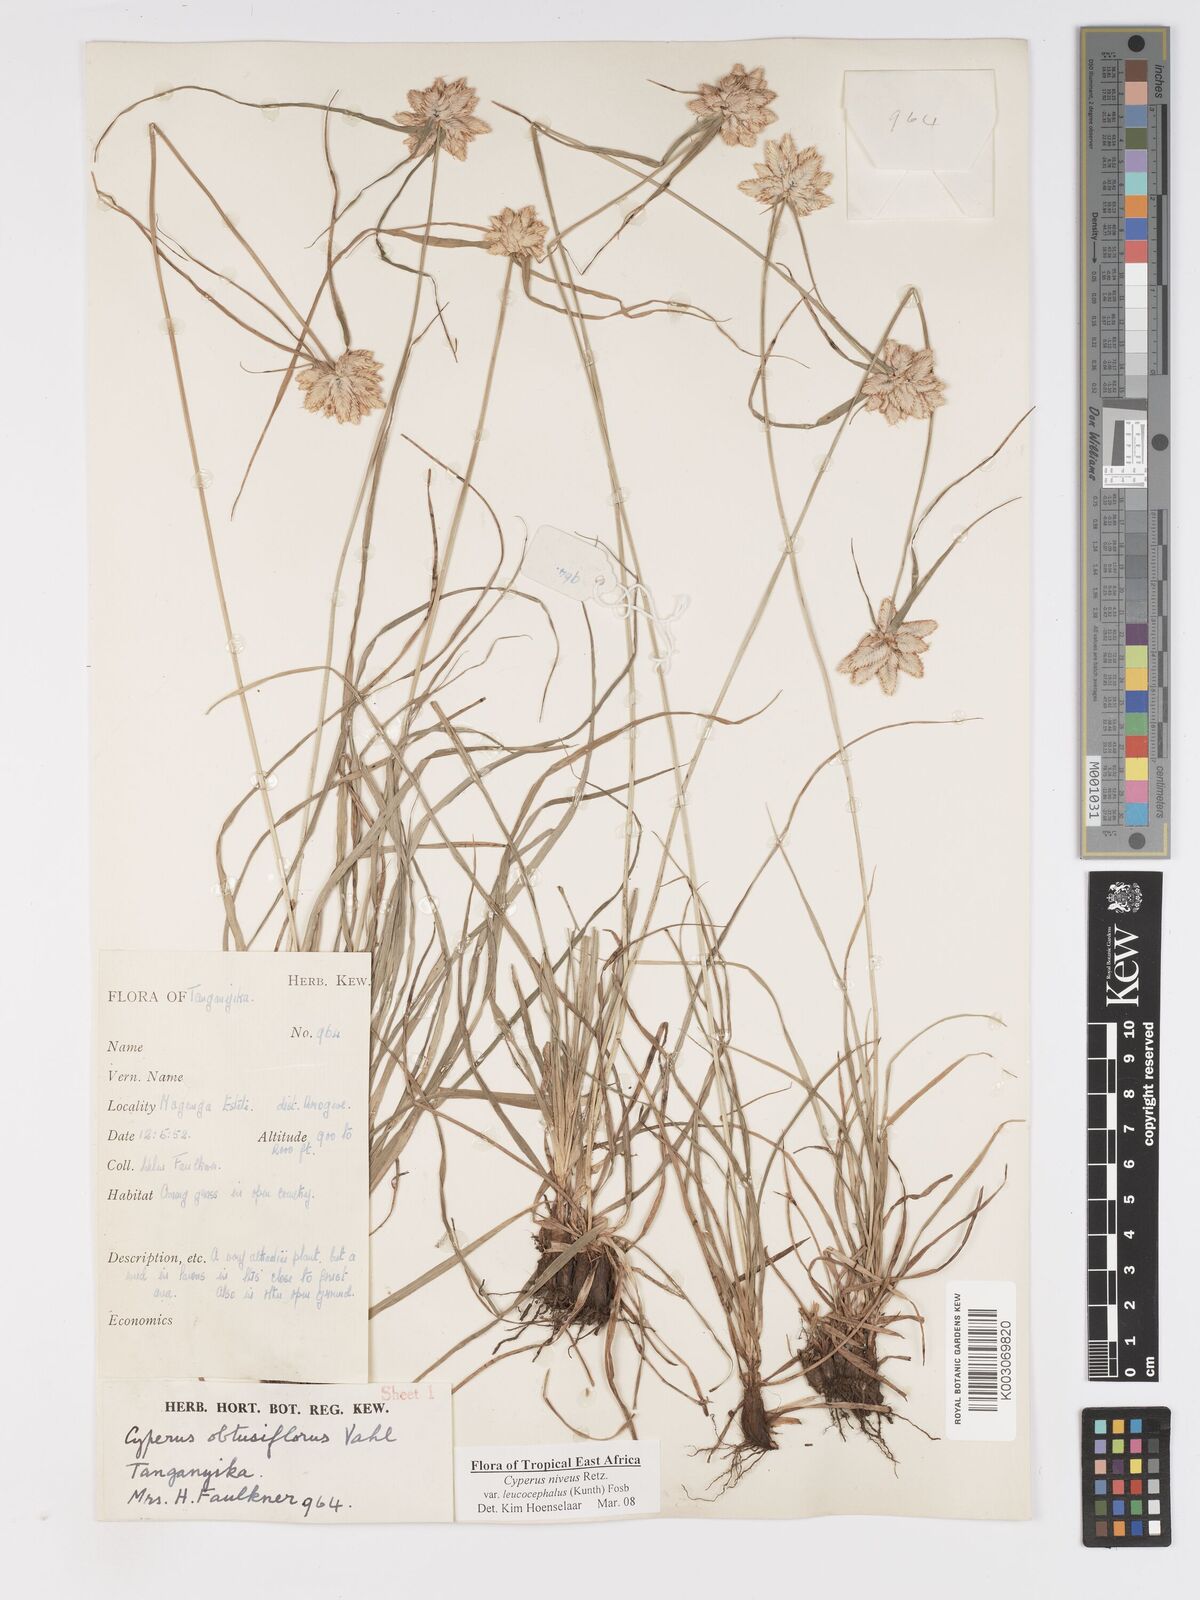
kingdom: Plantae
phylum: Tracheophyta
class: Liliopsida
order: Poales
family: Cyperaceae
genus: Cyperus
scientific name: Cyperus niveus
